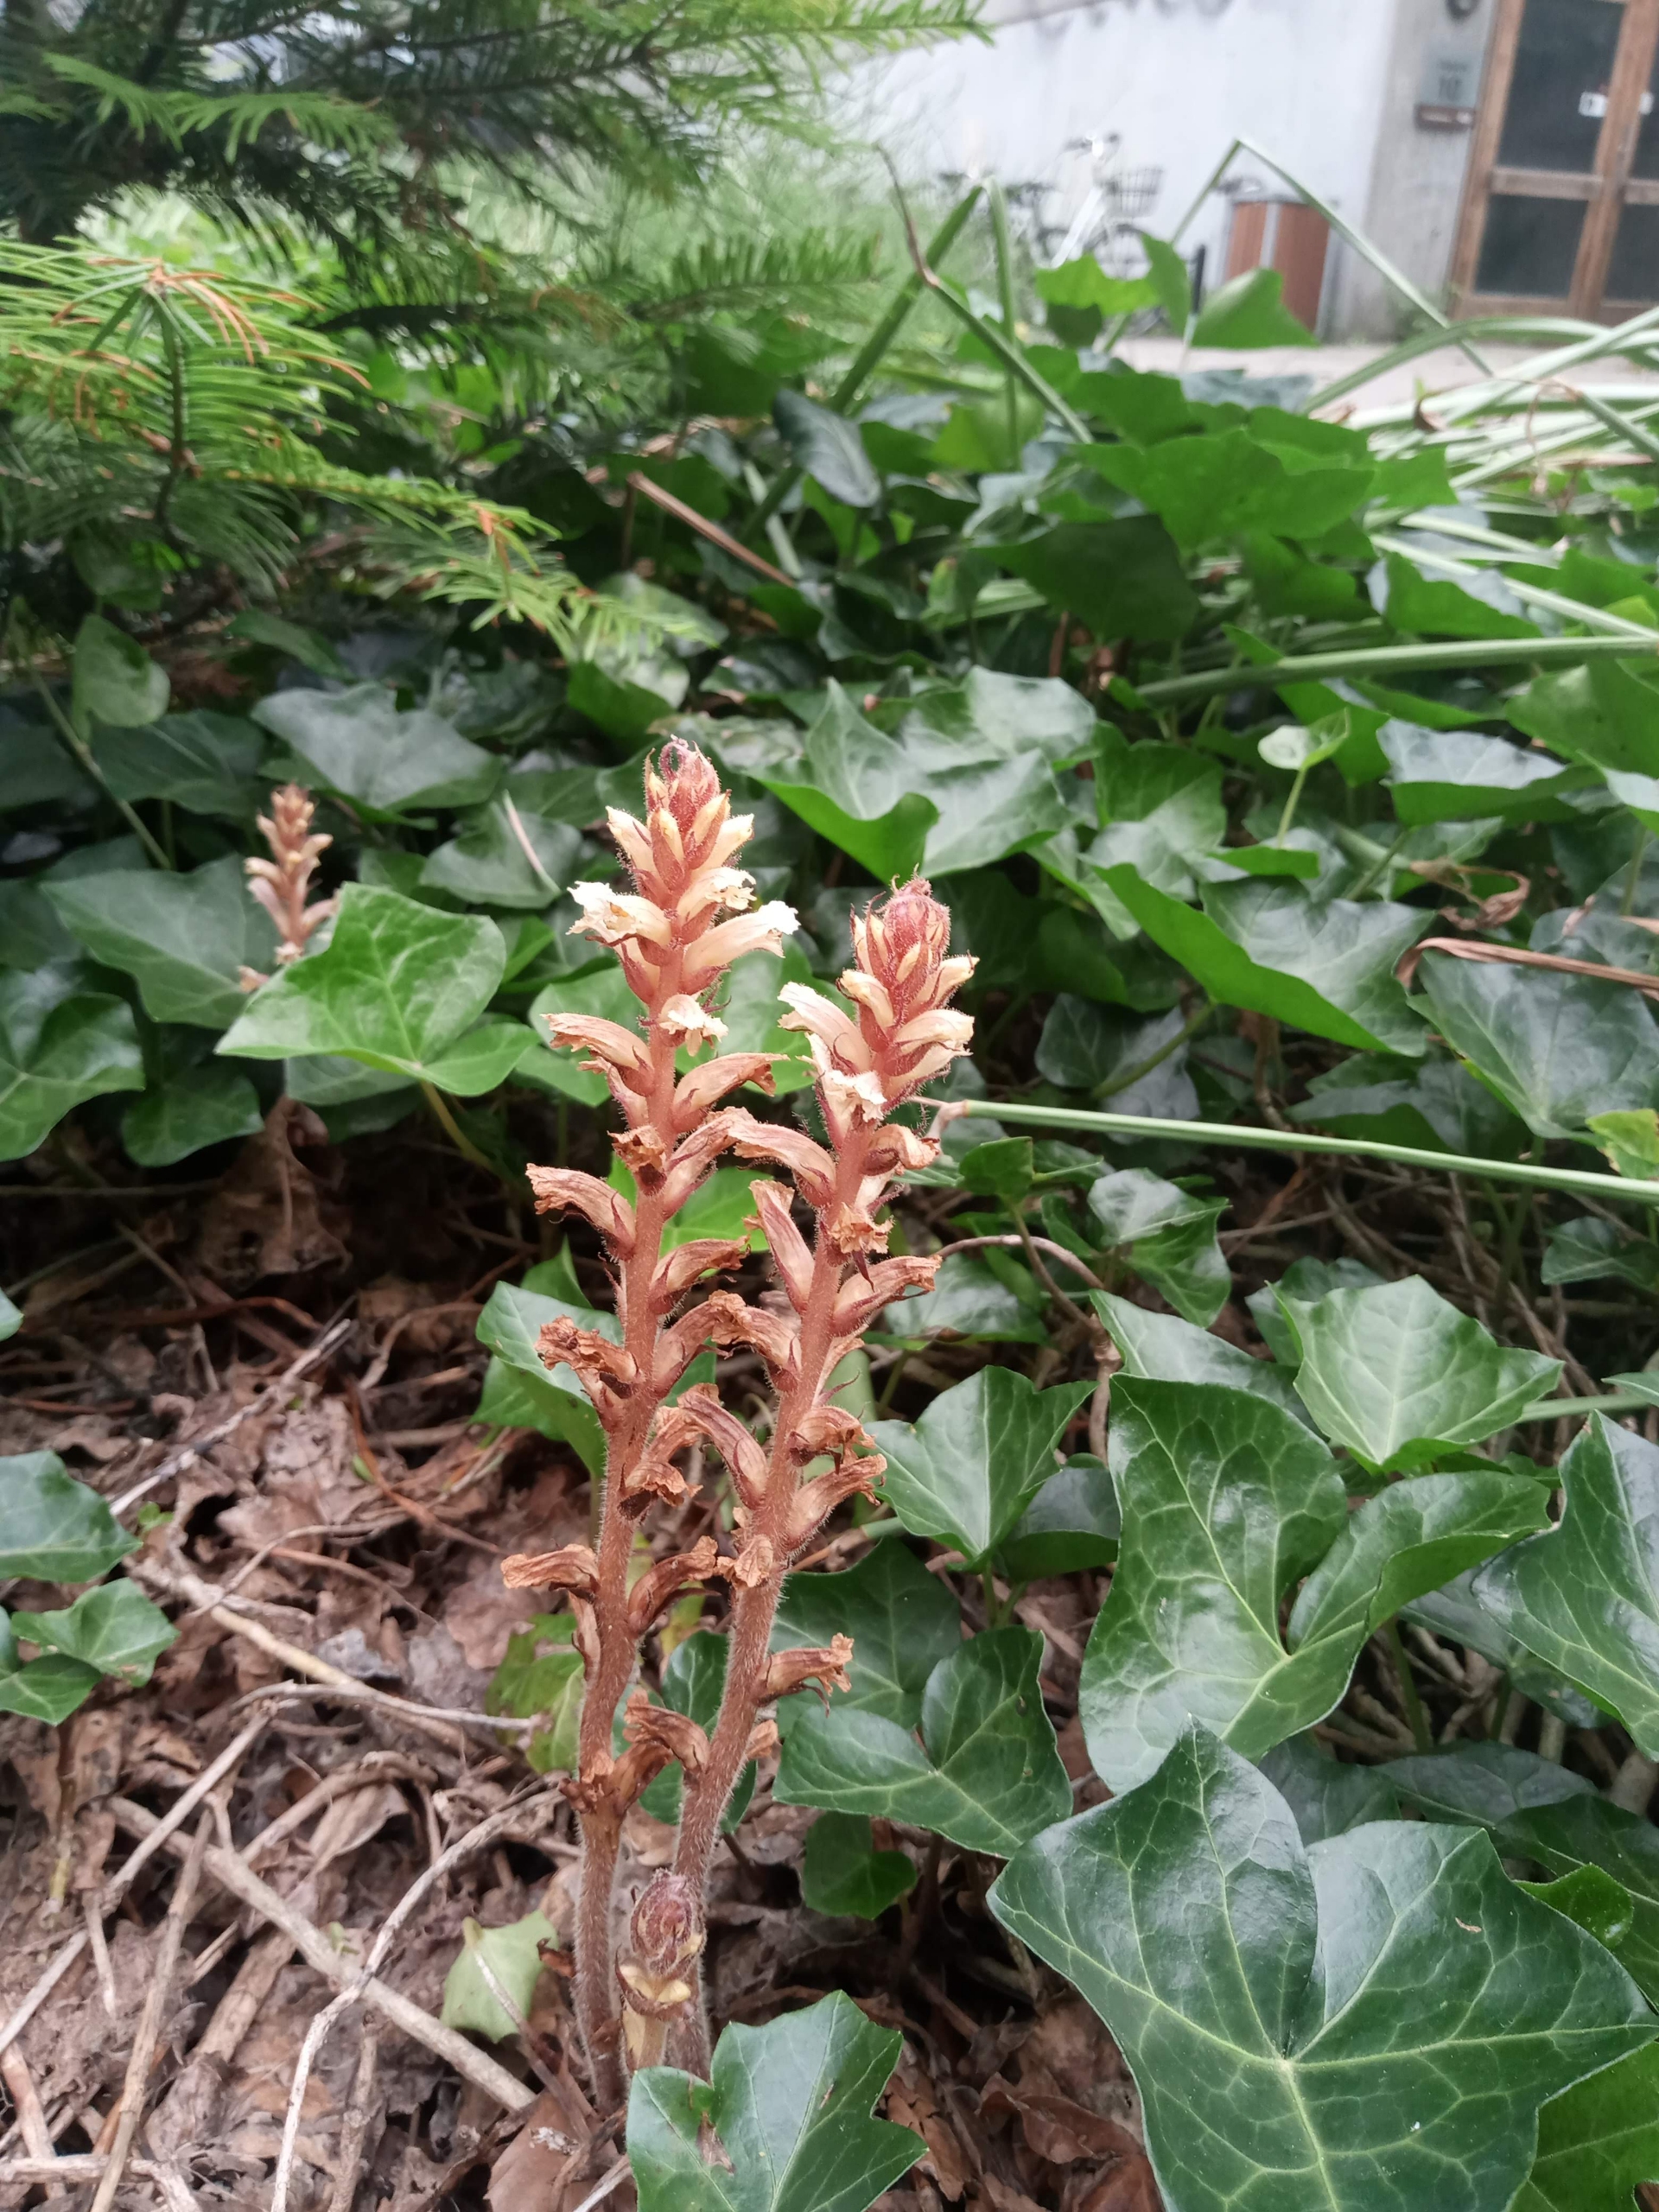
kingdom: Plantae
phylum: Tracheophyta
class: Magnoliopsida
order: Lamiales
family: Orobanchaceae
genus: Orobanche
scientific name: Orobanche hederae
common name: Vedbend-gyvelkvæler
